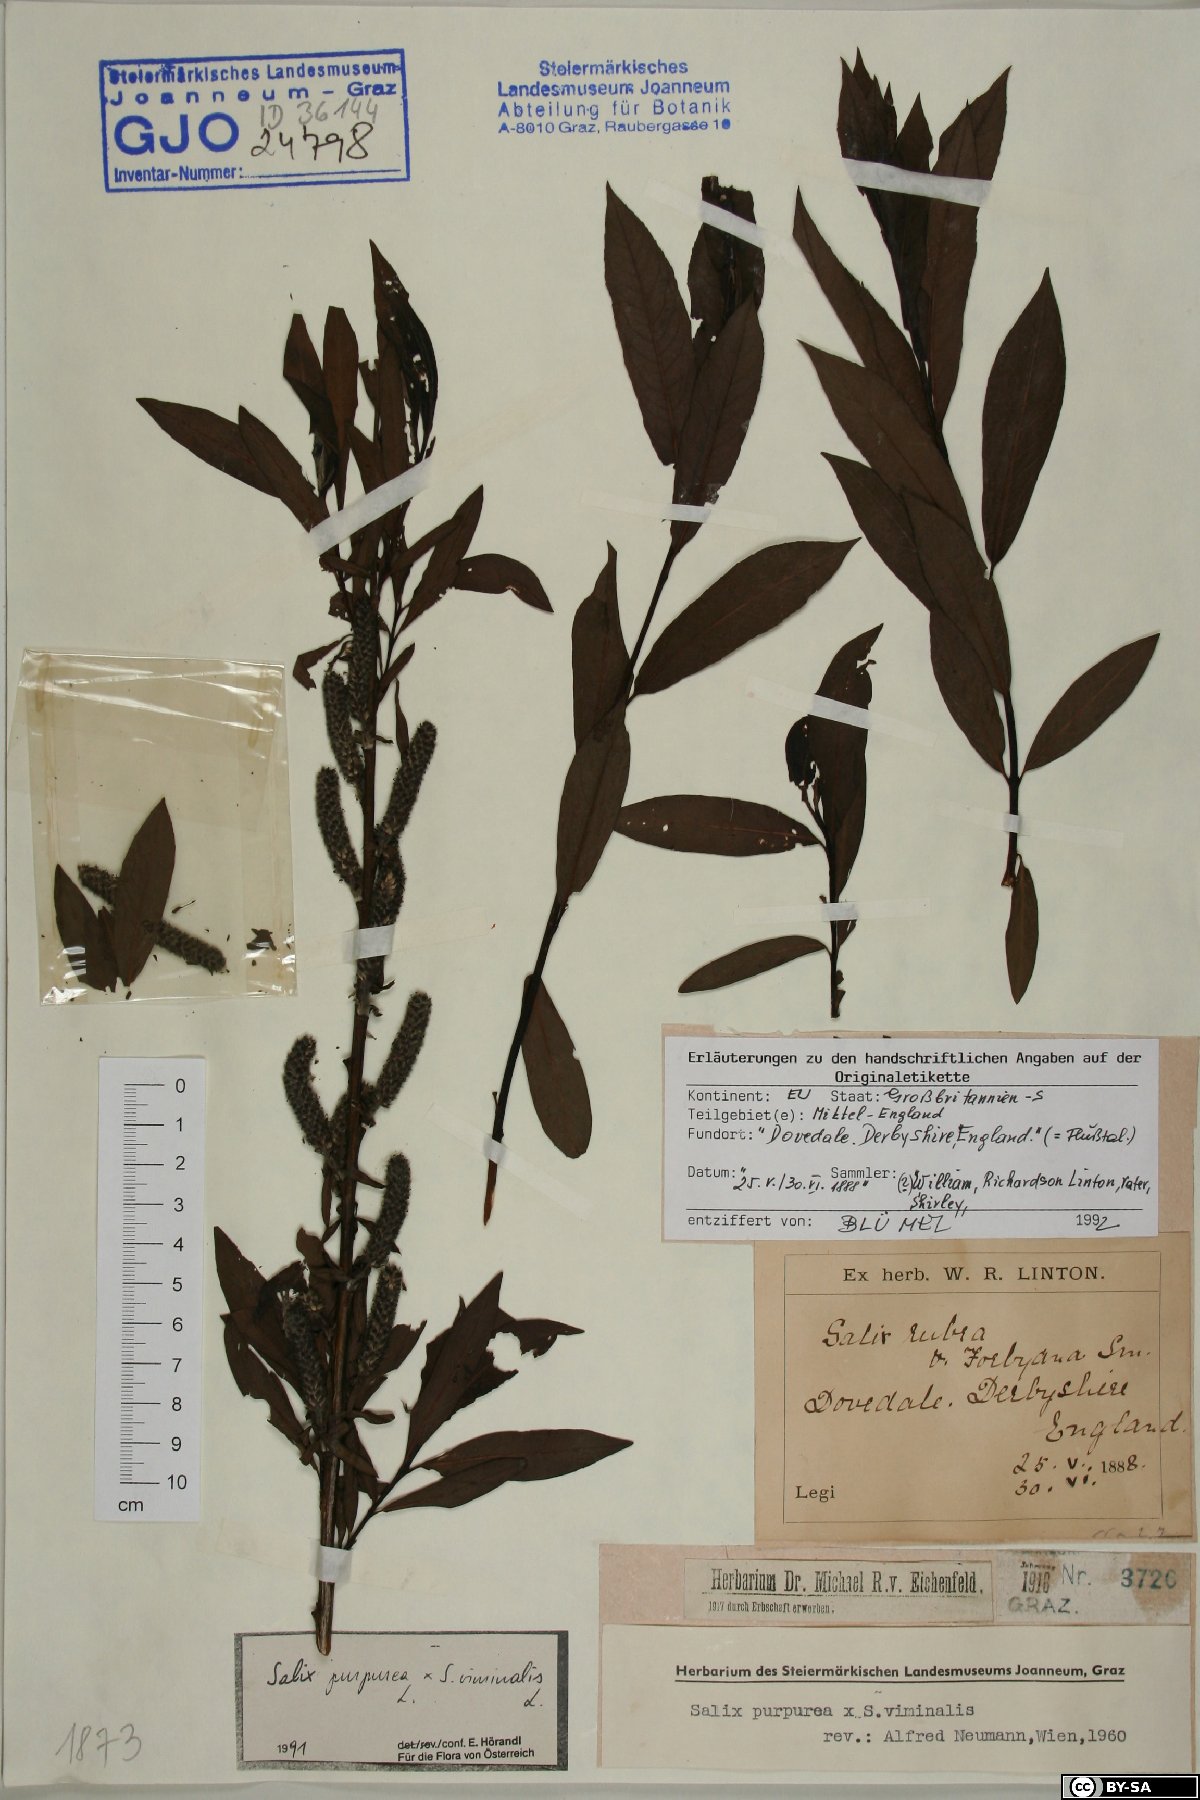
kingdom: Plantae
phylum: Tracheophyta
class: Magnoliopsida
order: Malpighiales
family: Salicaceae
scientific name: Salicaceae
